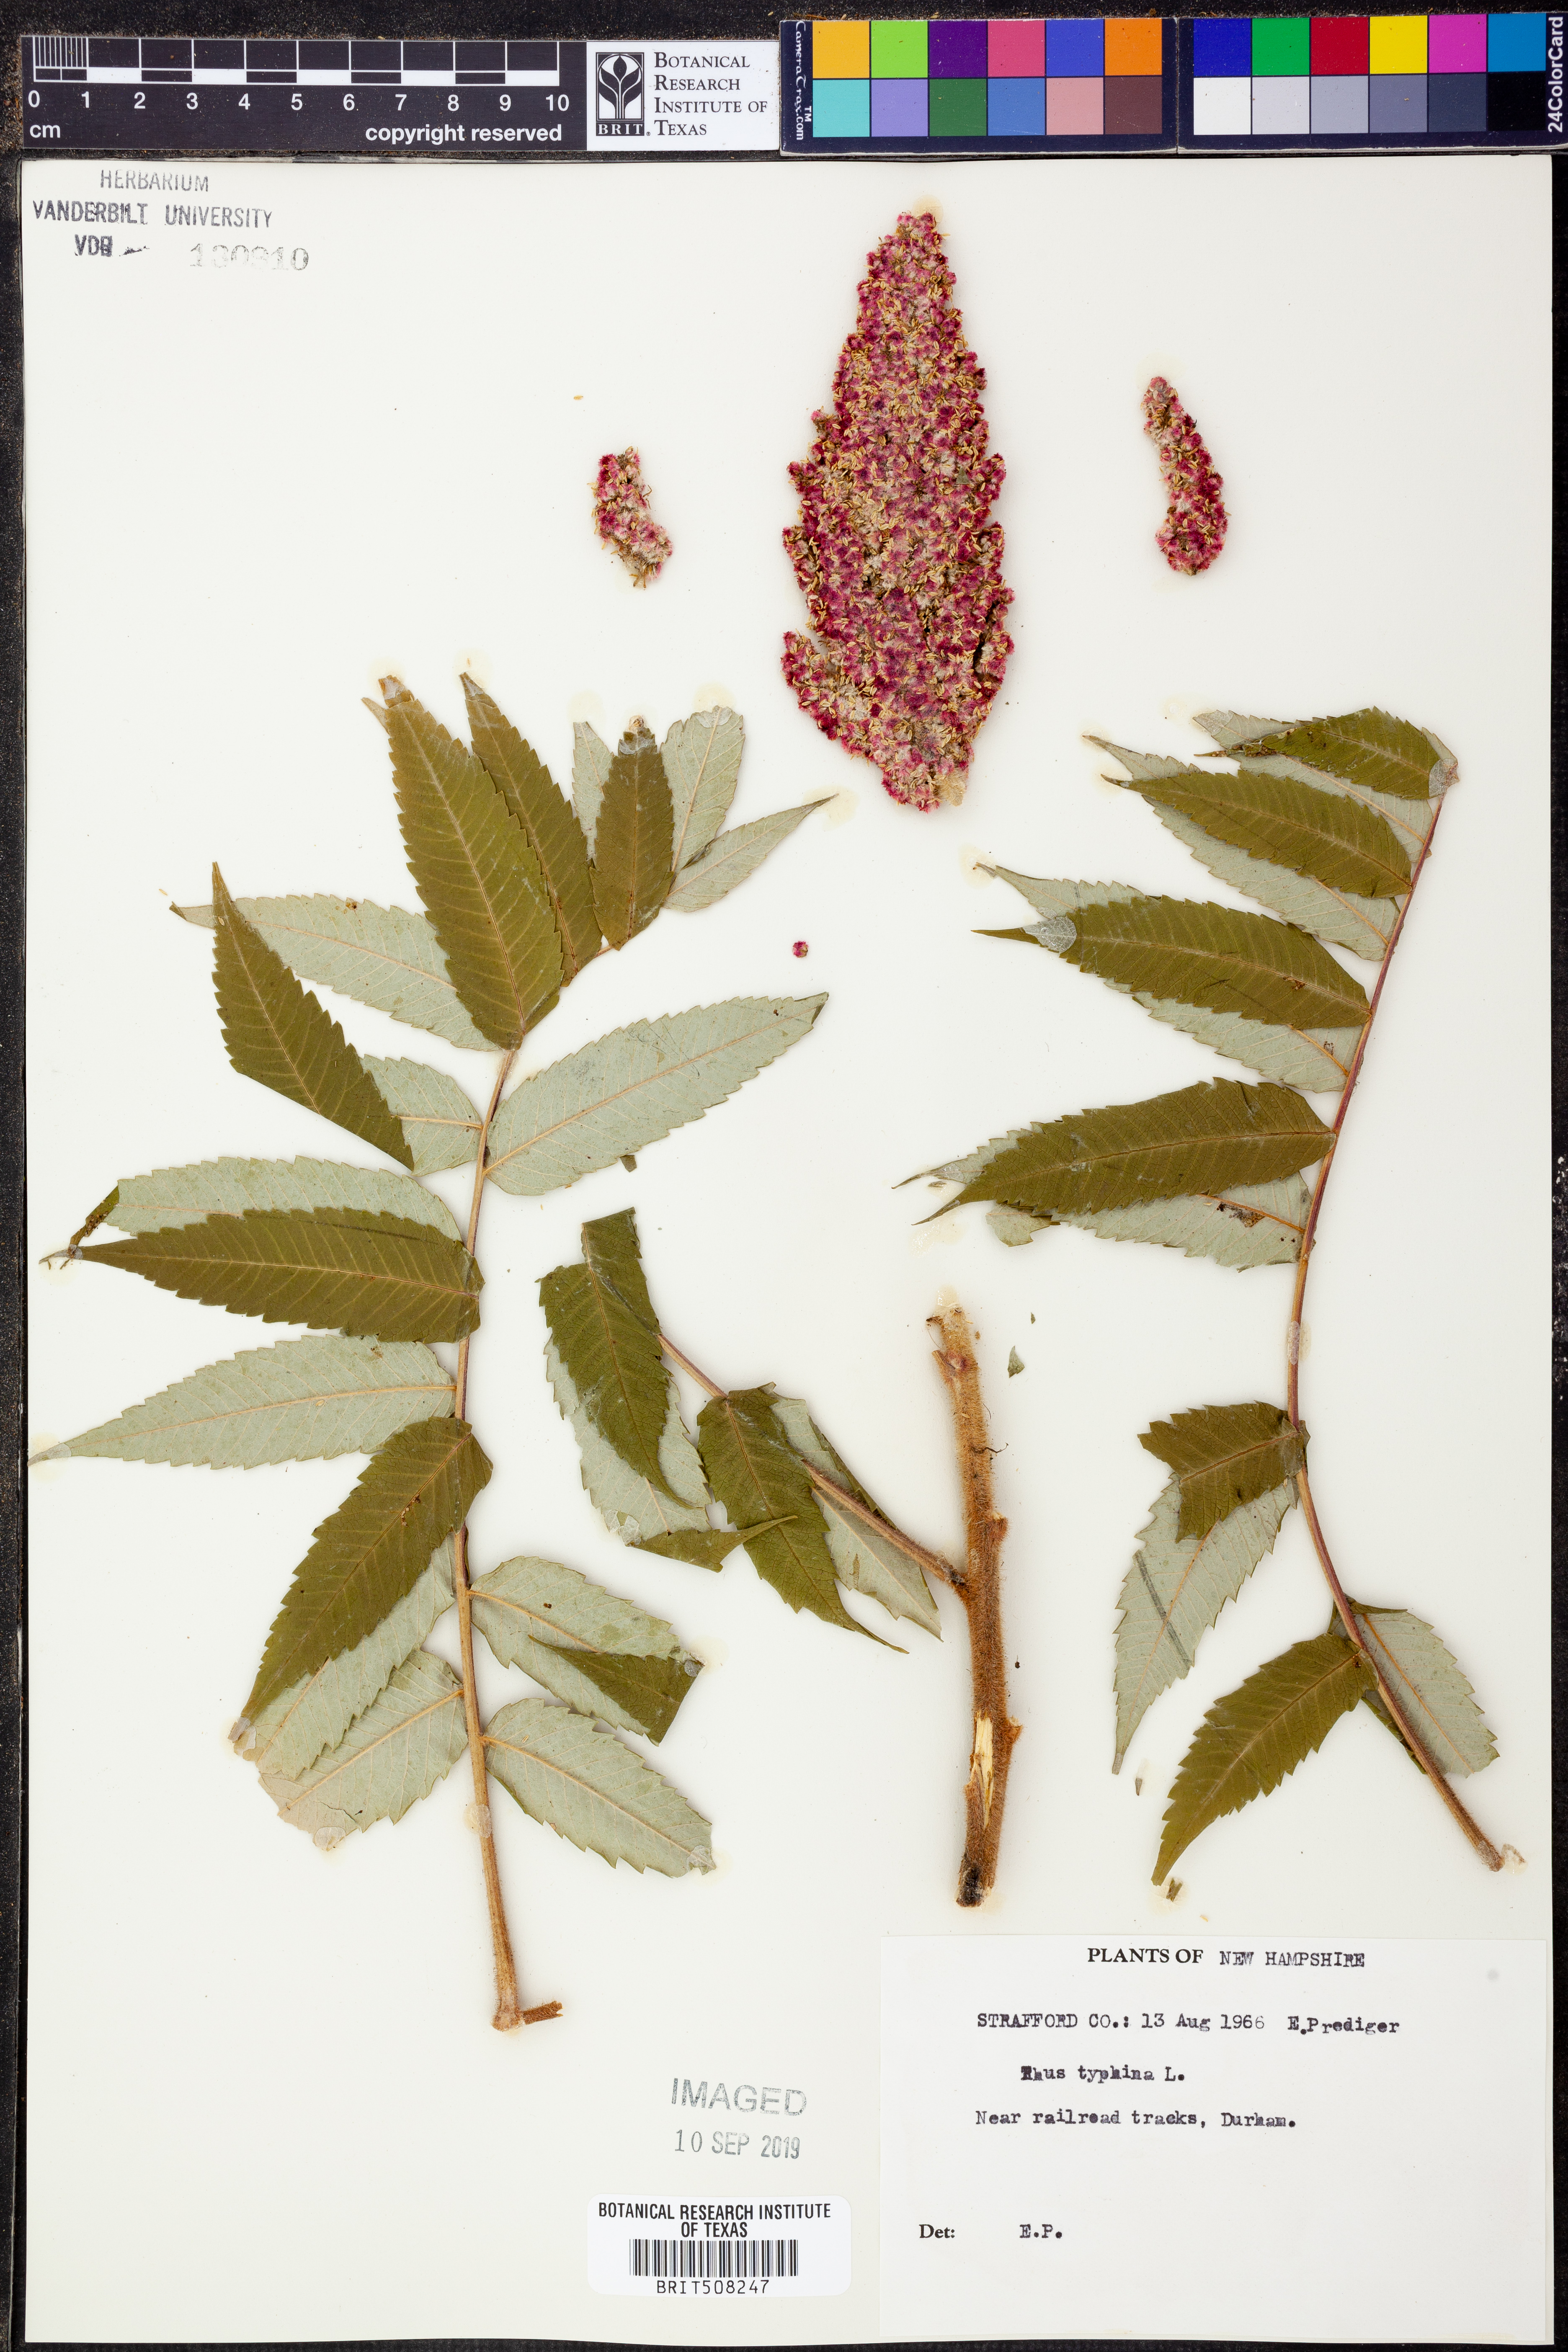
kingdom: Plantae
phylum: Tracheophyta
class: Magnoliopsida
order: Sapindales
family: Anacardiaceae
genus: Rhus
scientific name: Rhus typhina
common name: Staghorn sumac
